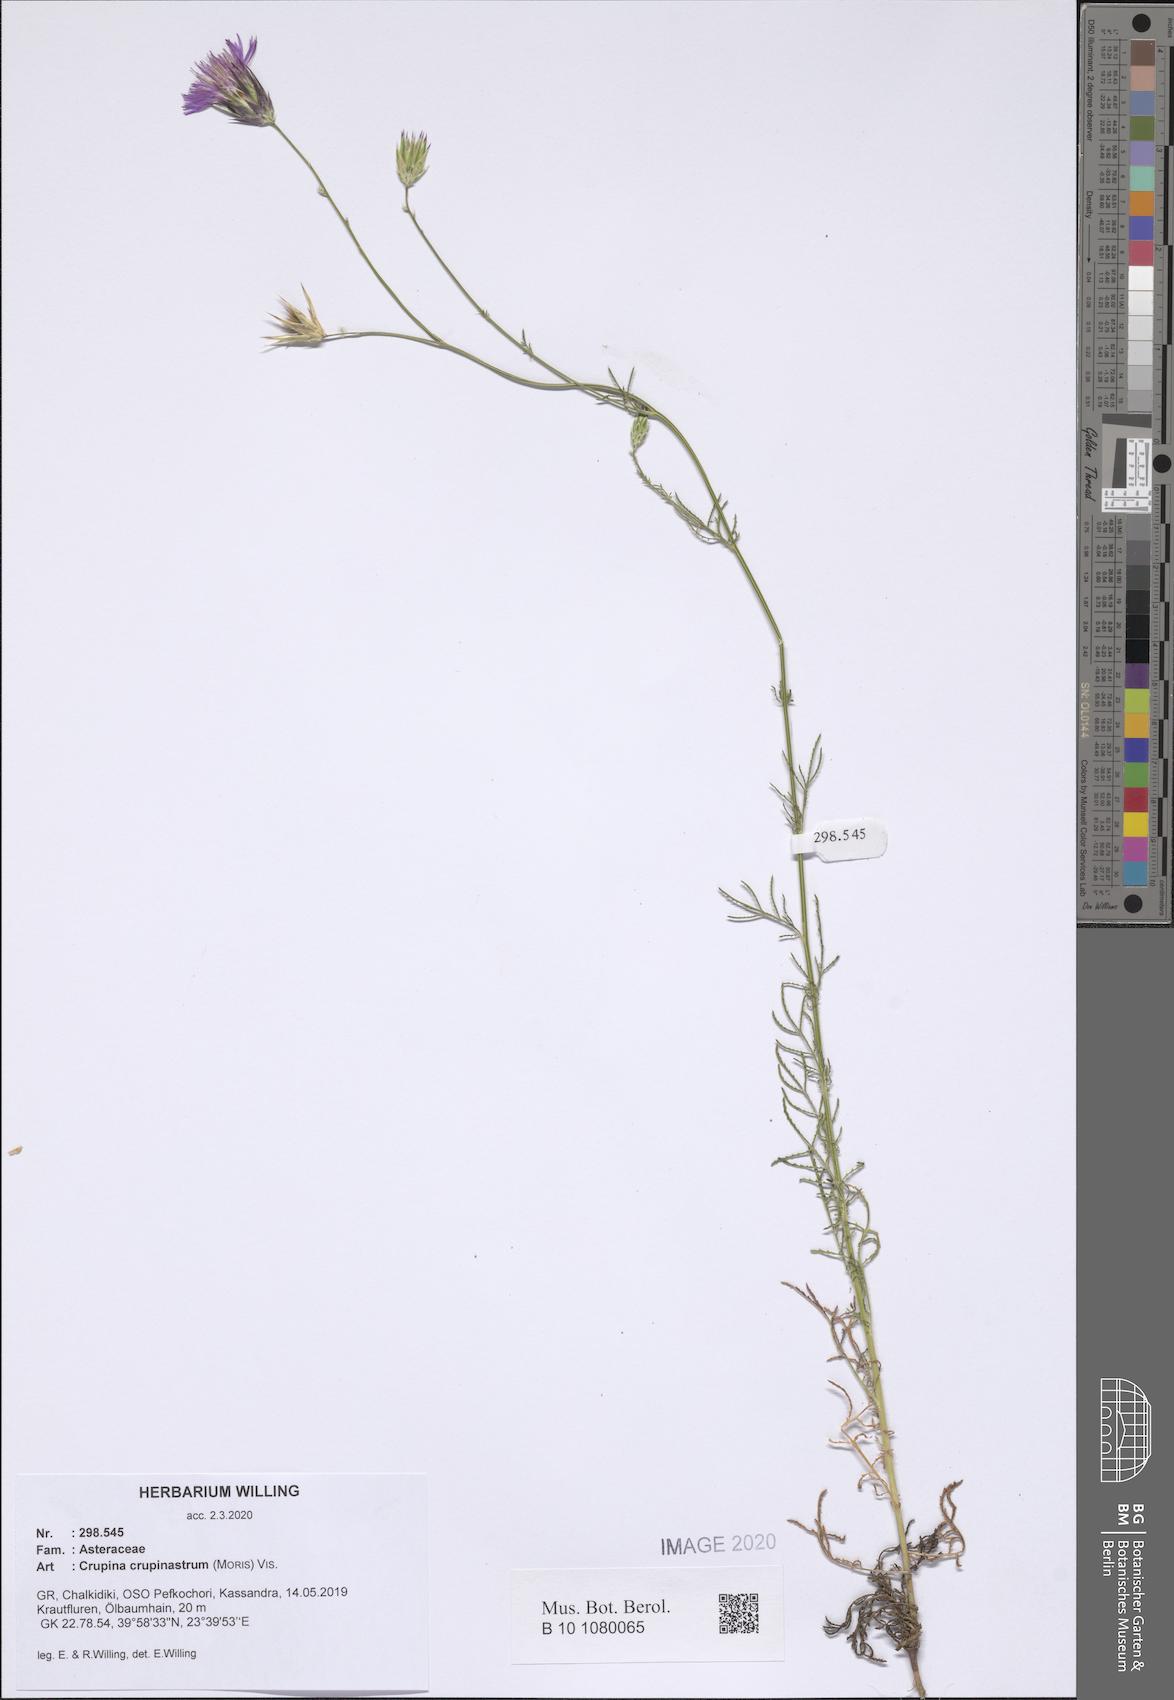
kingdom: Plantae
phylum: Tracheophyta
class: Magnoliopsida
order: Asterales
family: Asteraceae
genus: Crupina
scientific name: Crupina crupinastrum
